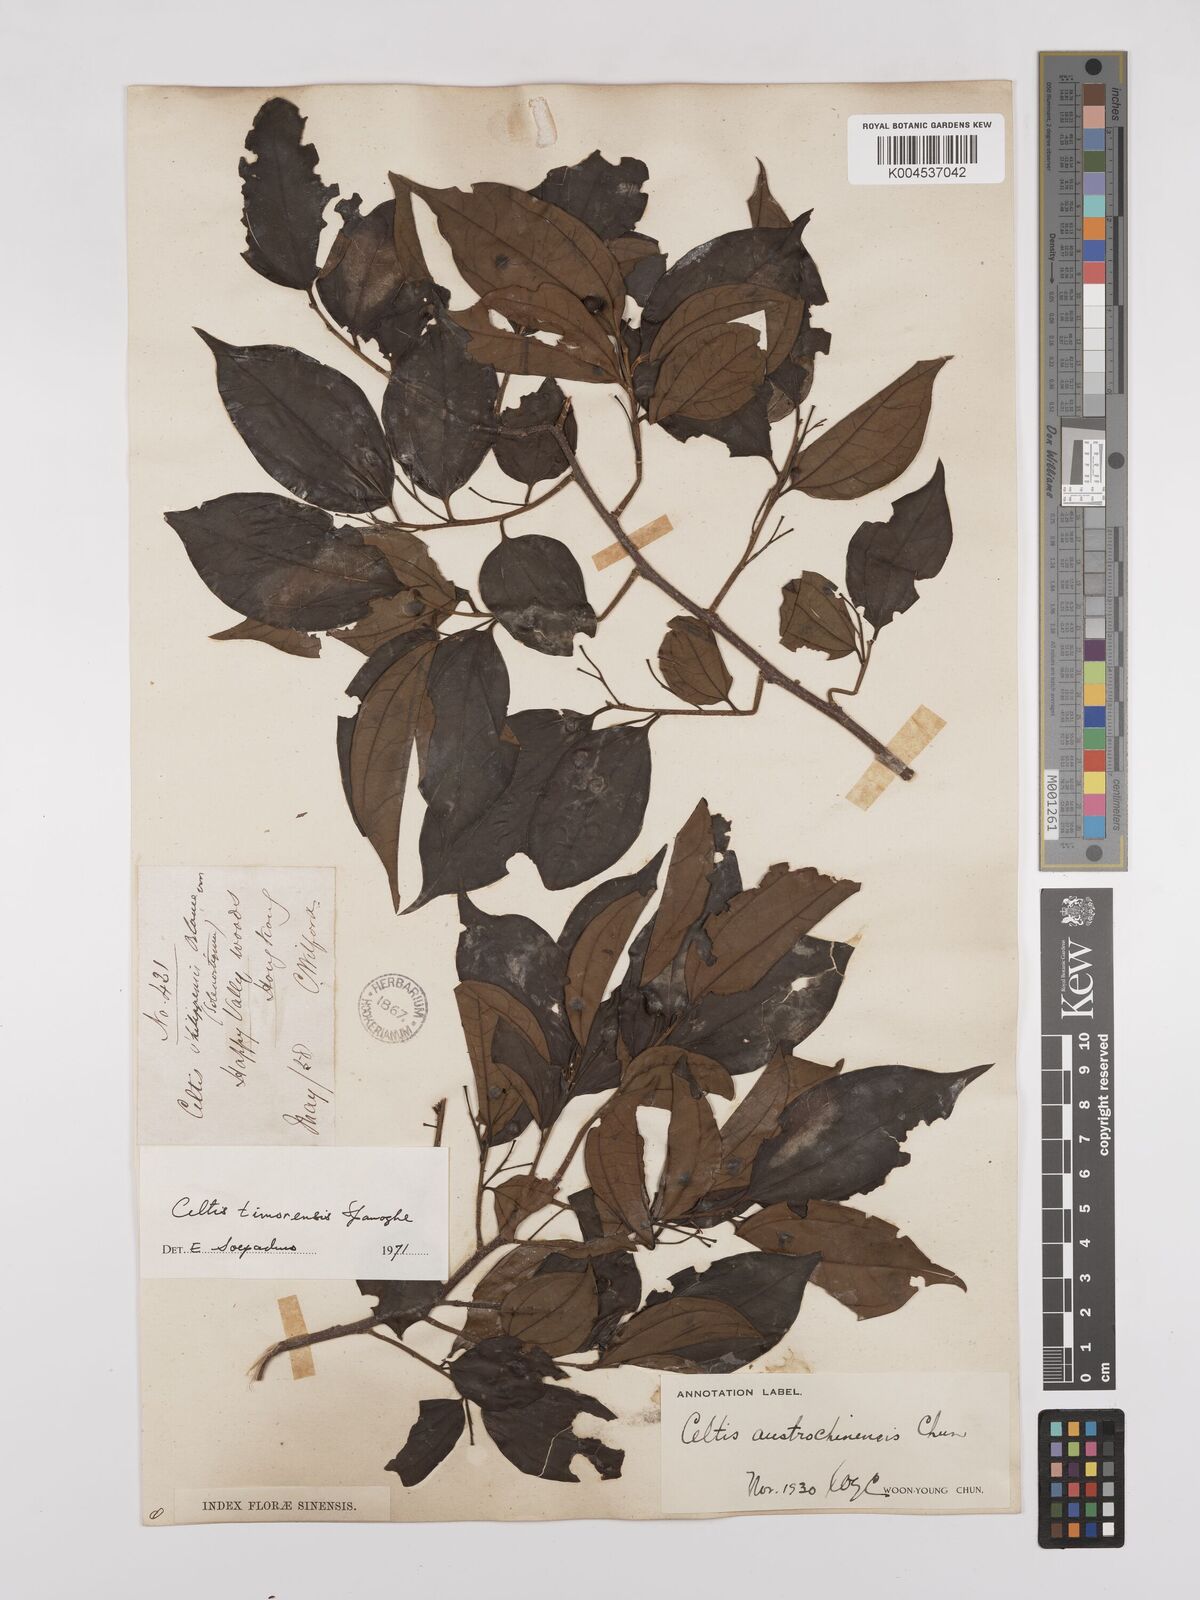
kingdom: Plantae
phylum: Tracheophyta
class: Magnoliopsida
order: Rosales
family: Cannabaceae
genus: Celtis
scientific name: Celtis timorensis
